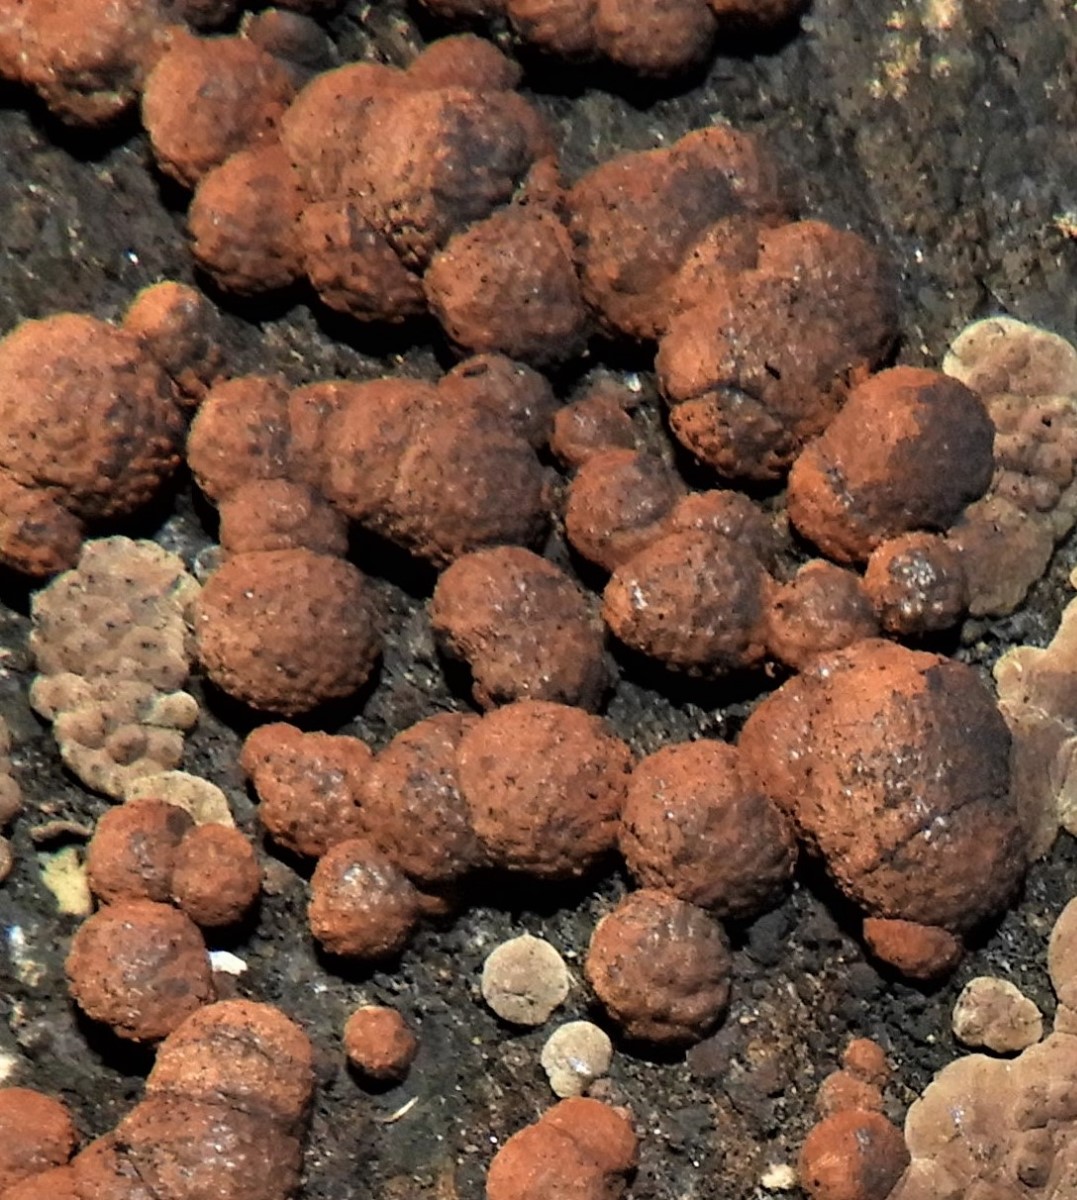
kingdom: Fungi
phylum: Ascomycota
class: Sordariomycetes
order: Xylariales
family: Hypoxylaceae
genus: Hypoxylon
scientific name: Hypoxylon fragiforme
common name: kuljordbær
